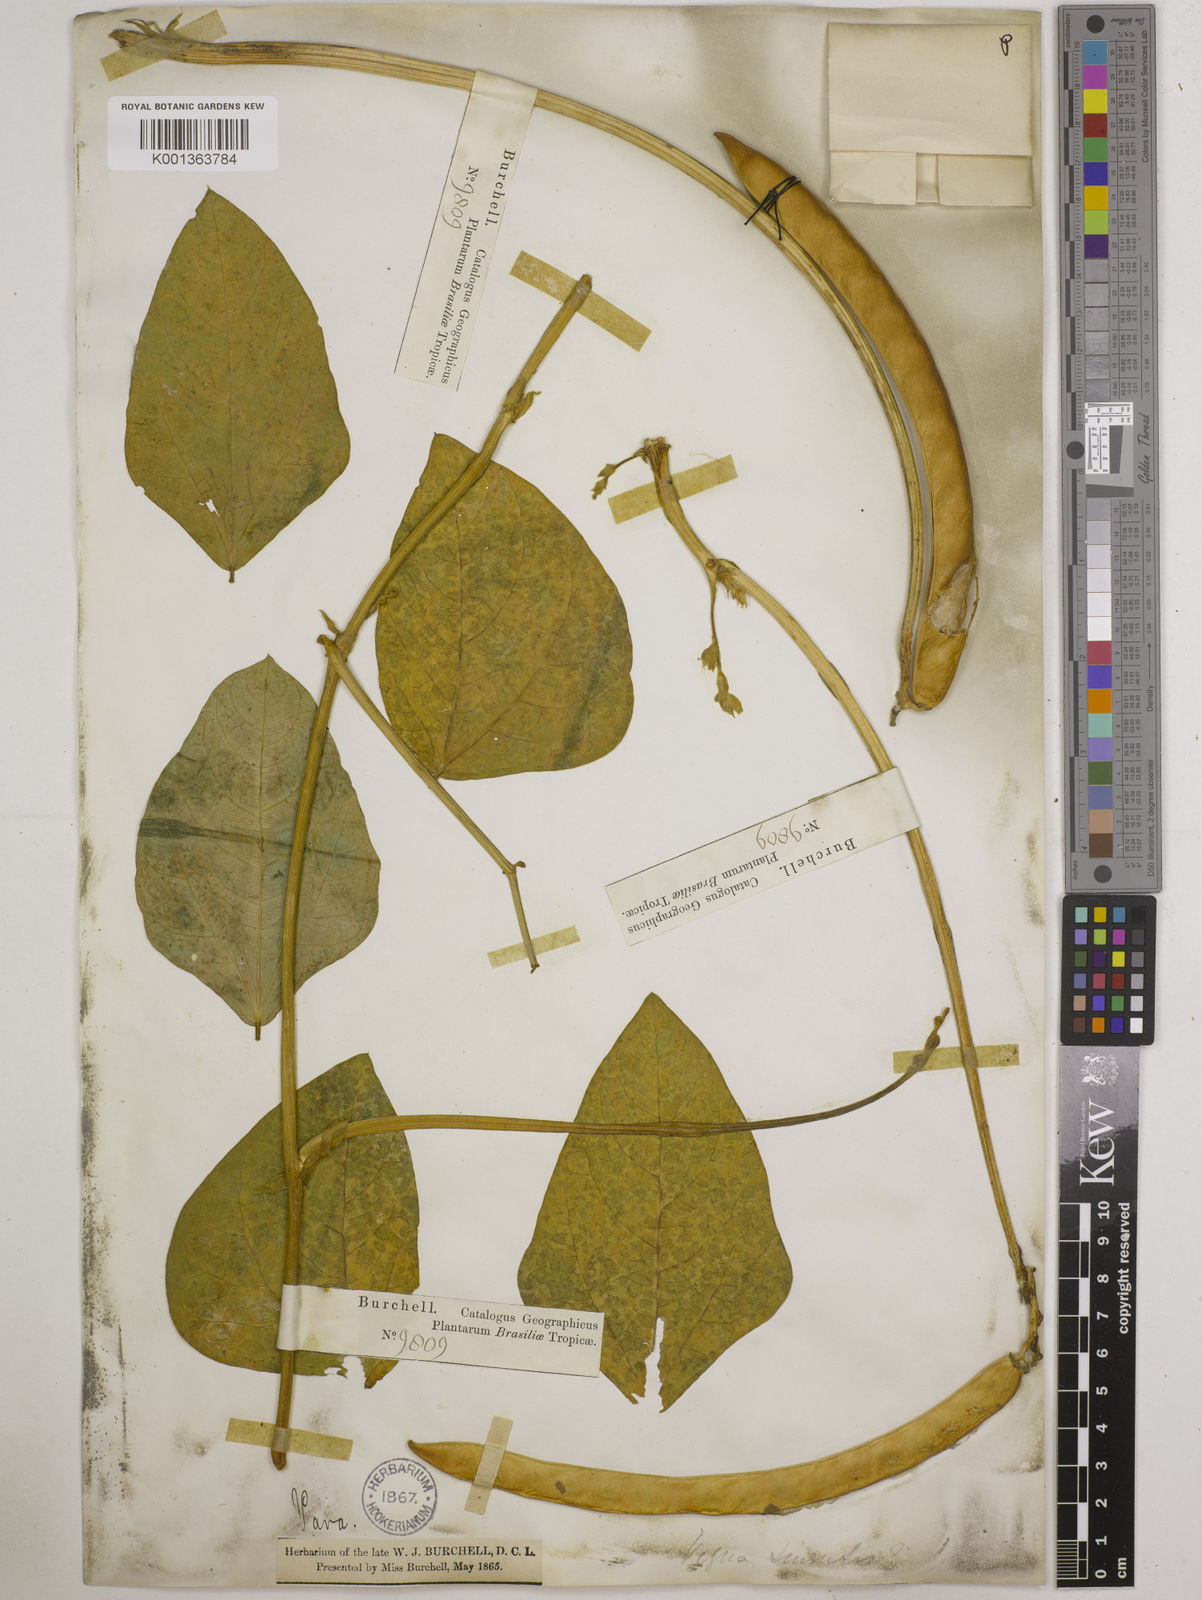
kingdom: Plantae
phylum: Tracheophyta
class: Magnoliopsida
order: Fabales
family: Fabaceae
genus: Vigna
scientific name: Vigna unguiculata
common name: Cowpea
